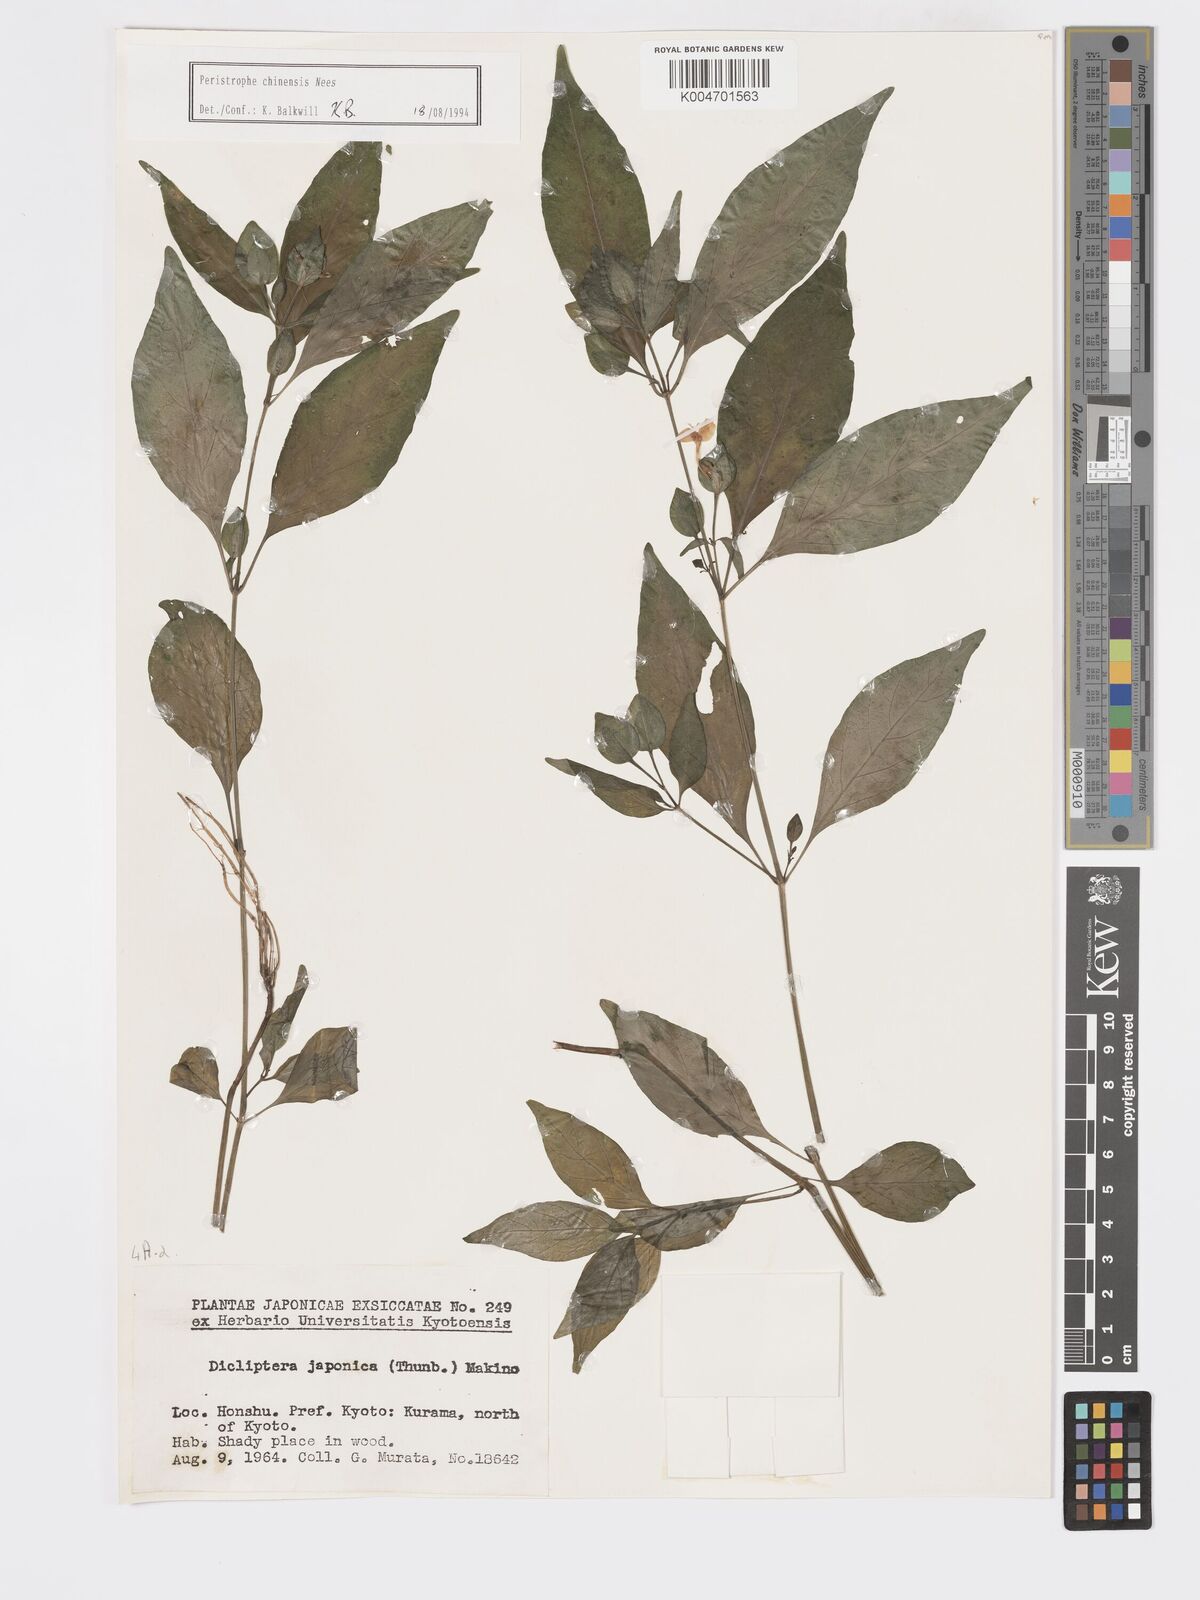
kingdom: Plantae
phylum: Tracheophyta
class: Magnoliopsida
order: Lamiales
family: Acanthaceae
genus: Dicliptera
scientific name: Dicliptera chinensis
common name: Chinese foldwing
